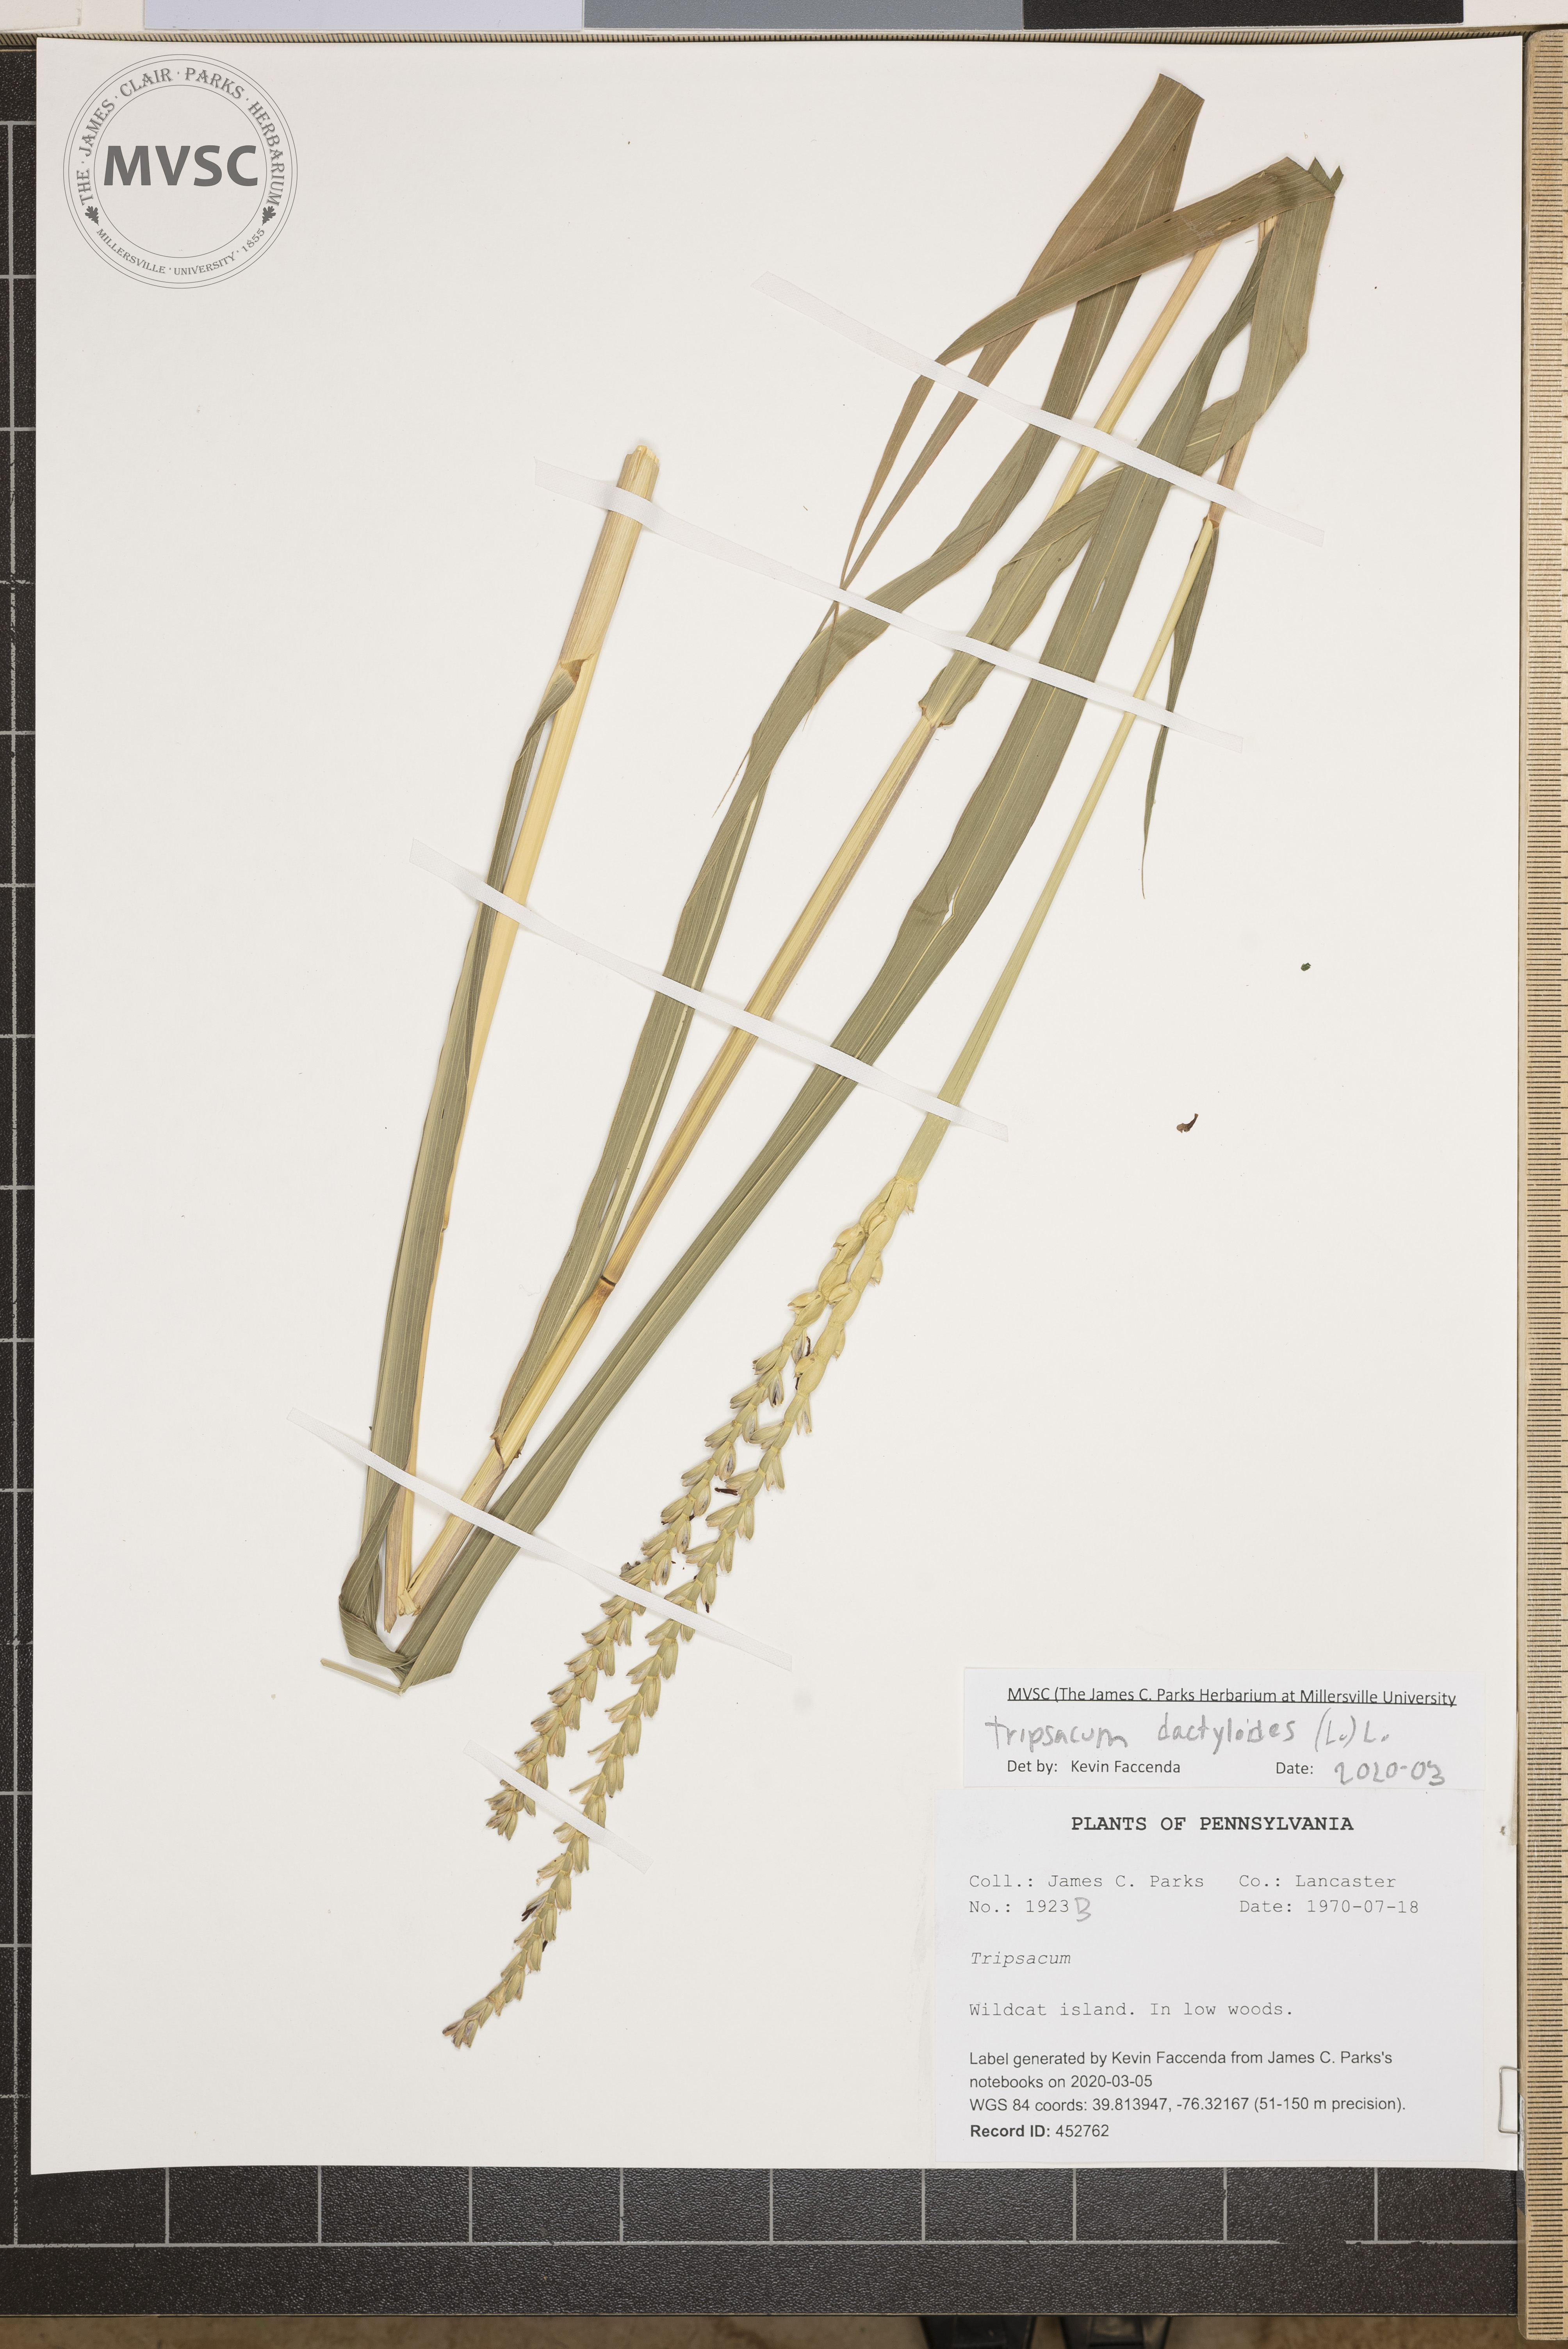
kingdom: Plantae
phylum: Tracheophyta
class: Liliopsida
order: Poales
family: Poaceae
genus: Tripsacum
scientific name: Tripsacum dactyloides
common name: Buffalo-grass
